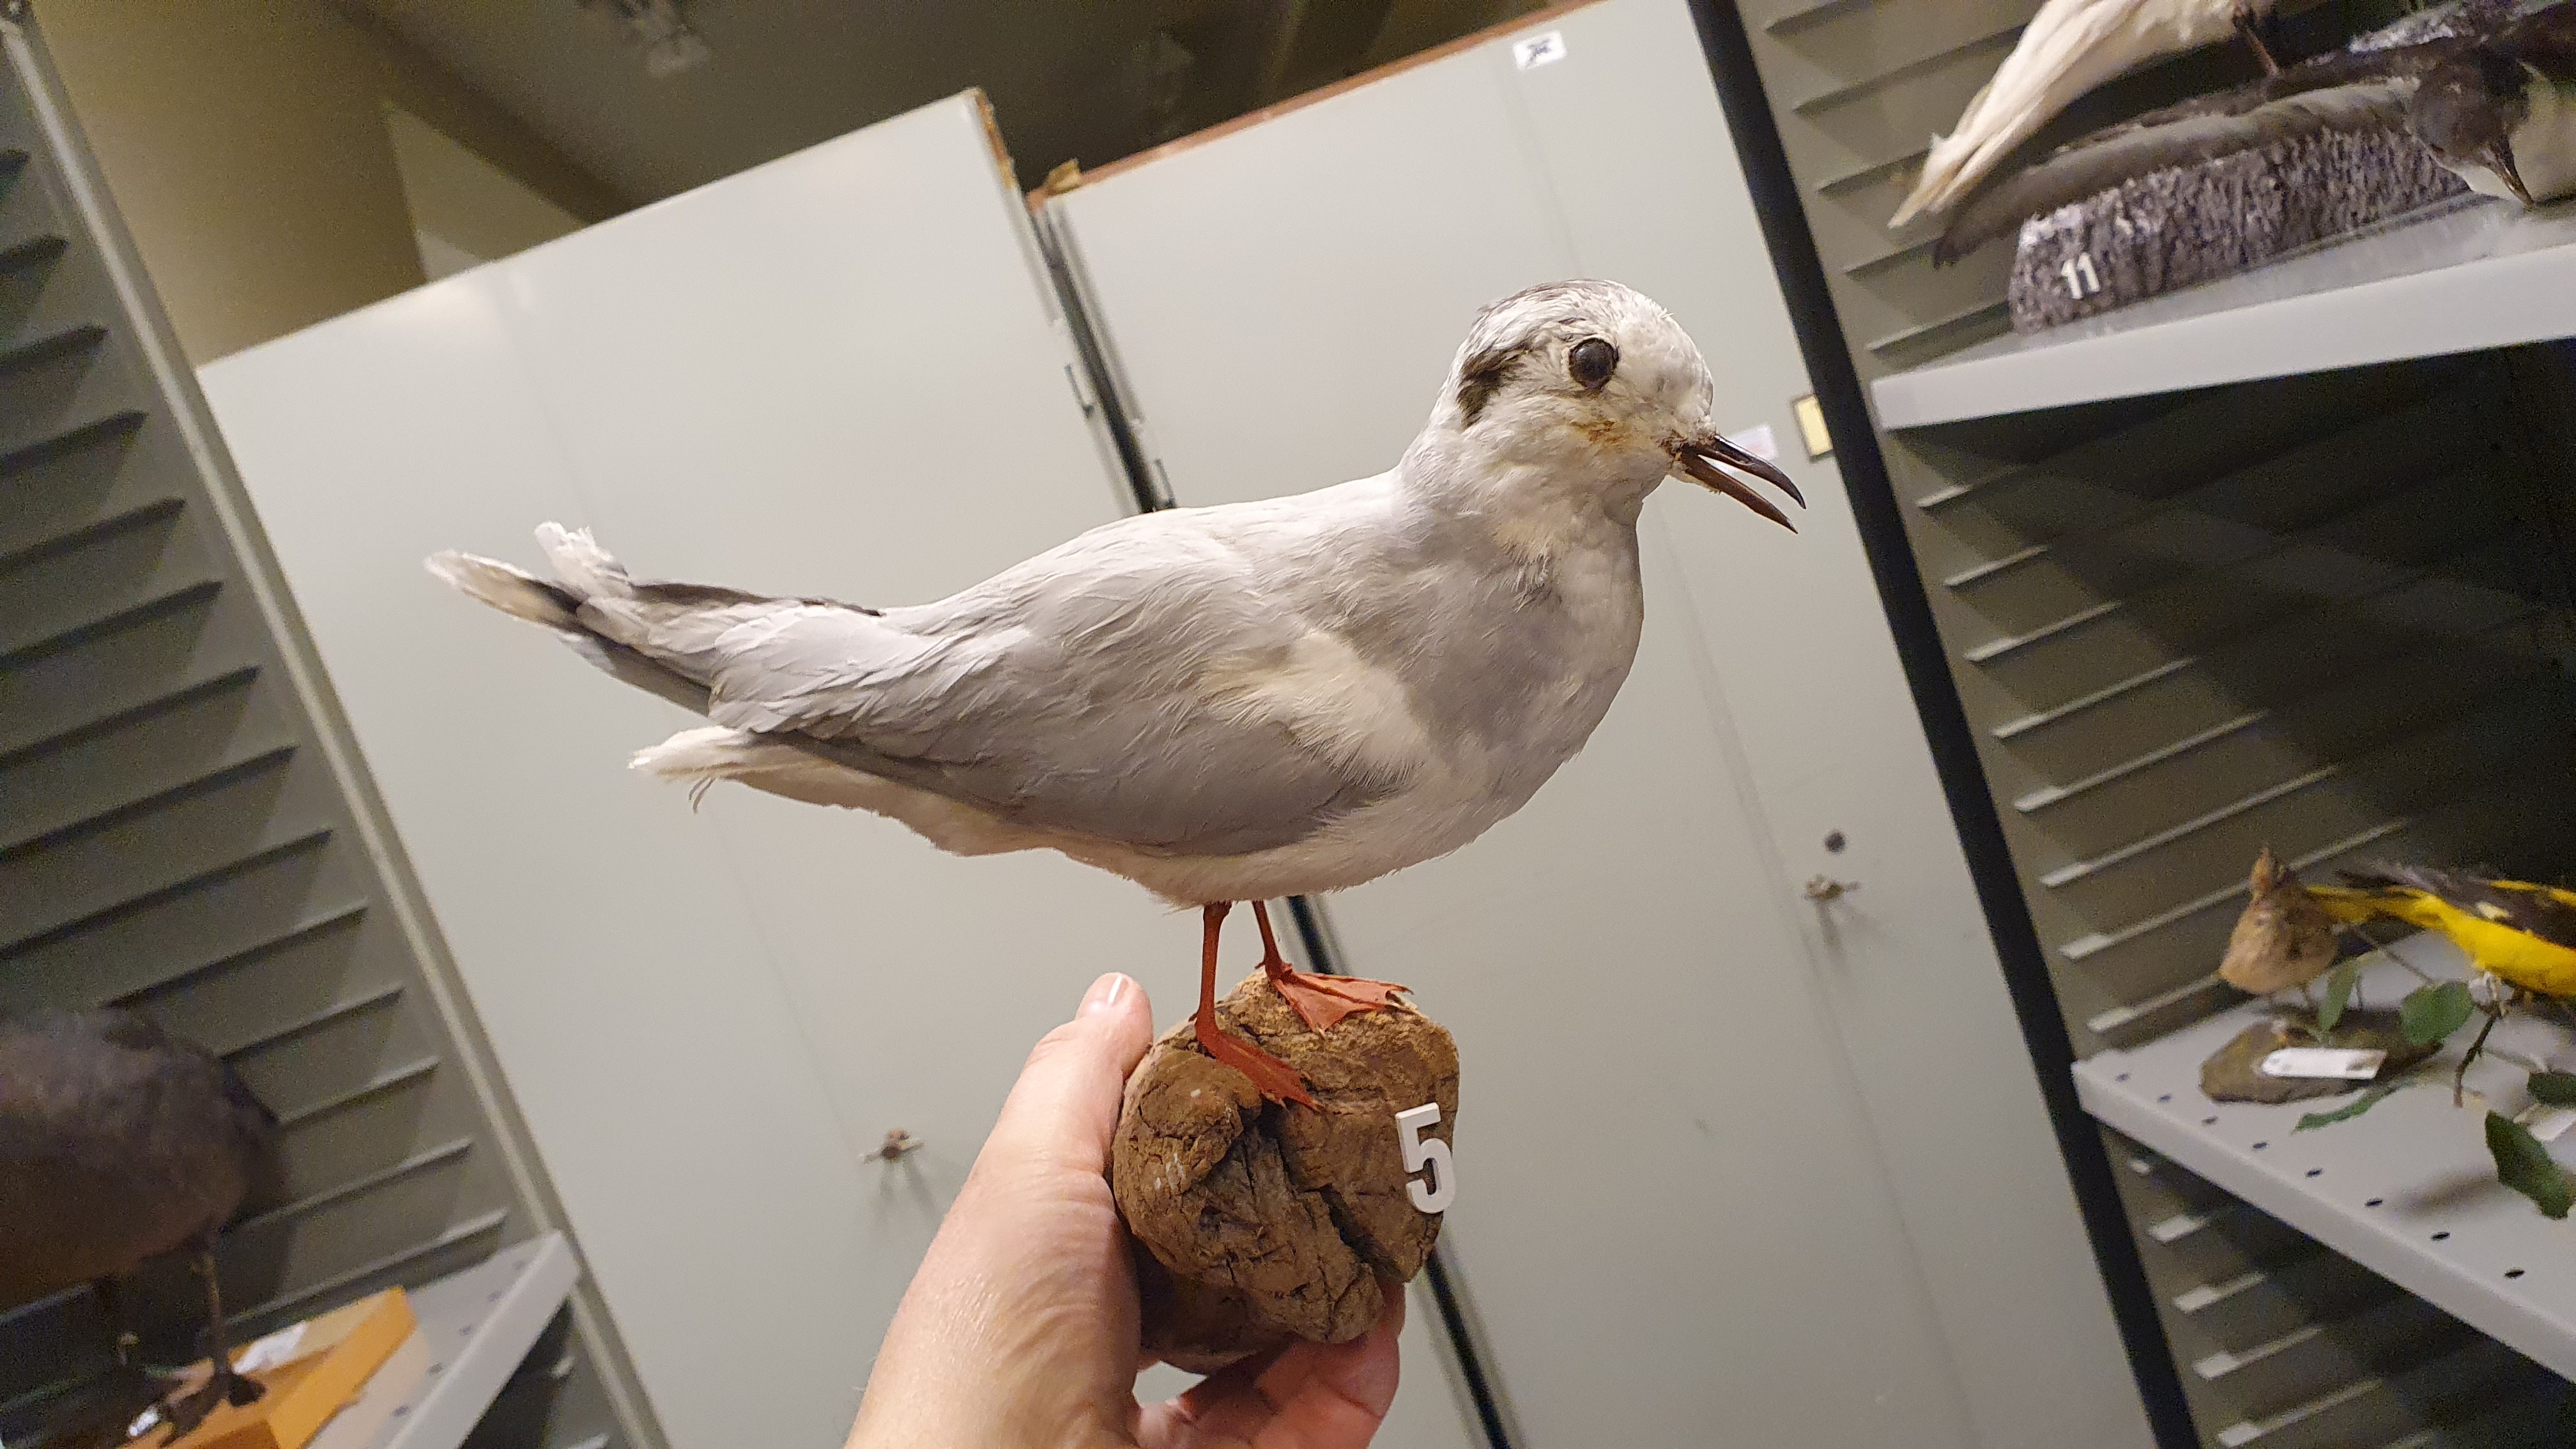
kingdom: Animalia
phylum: Chordata
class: Aves
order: Charadriiformes
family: Laridae
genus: Chroicocephalus
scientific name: Chroicocephalus ridibundus
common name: Black-headed gull
